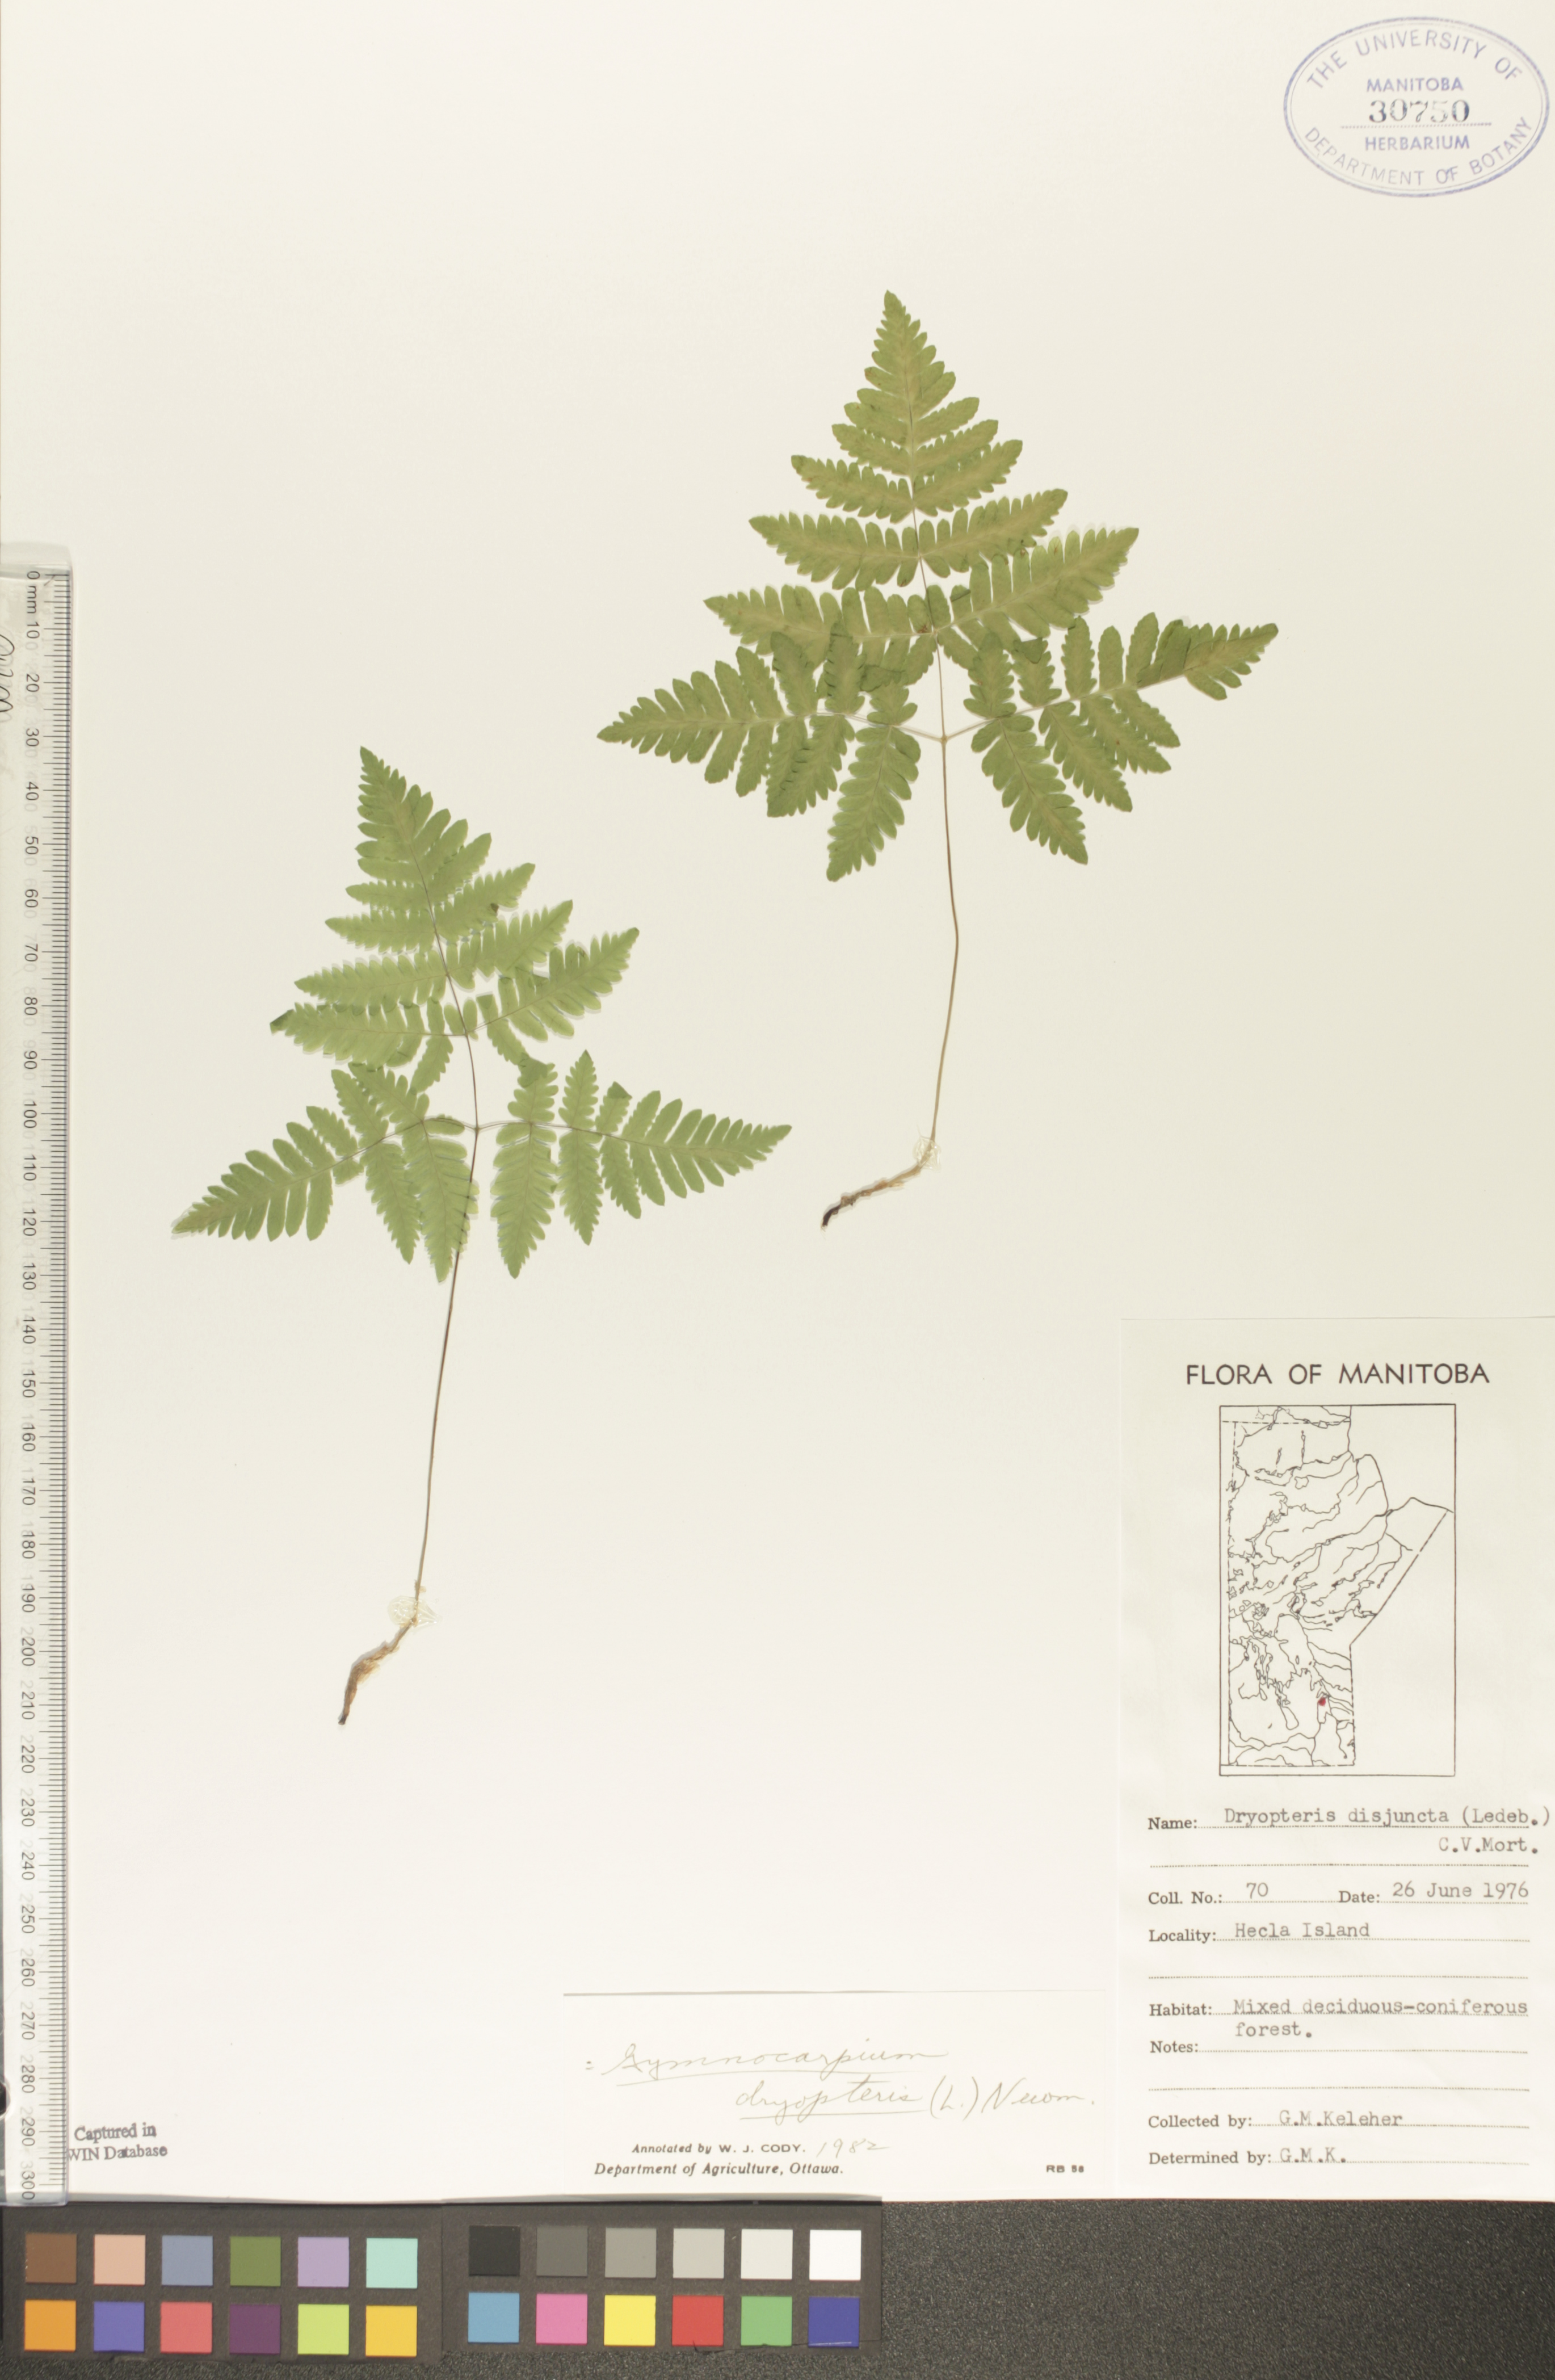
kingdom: Plantae
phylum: Tracheophyta
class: Polypodiopsida
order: Polypodiales
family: Cystopteridaceae
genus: Gymnocarpium
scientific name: Gymnocarpium dryopteris
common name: Oak fern
